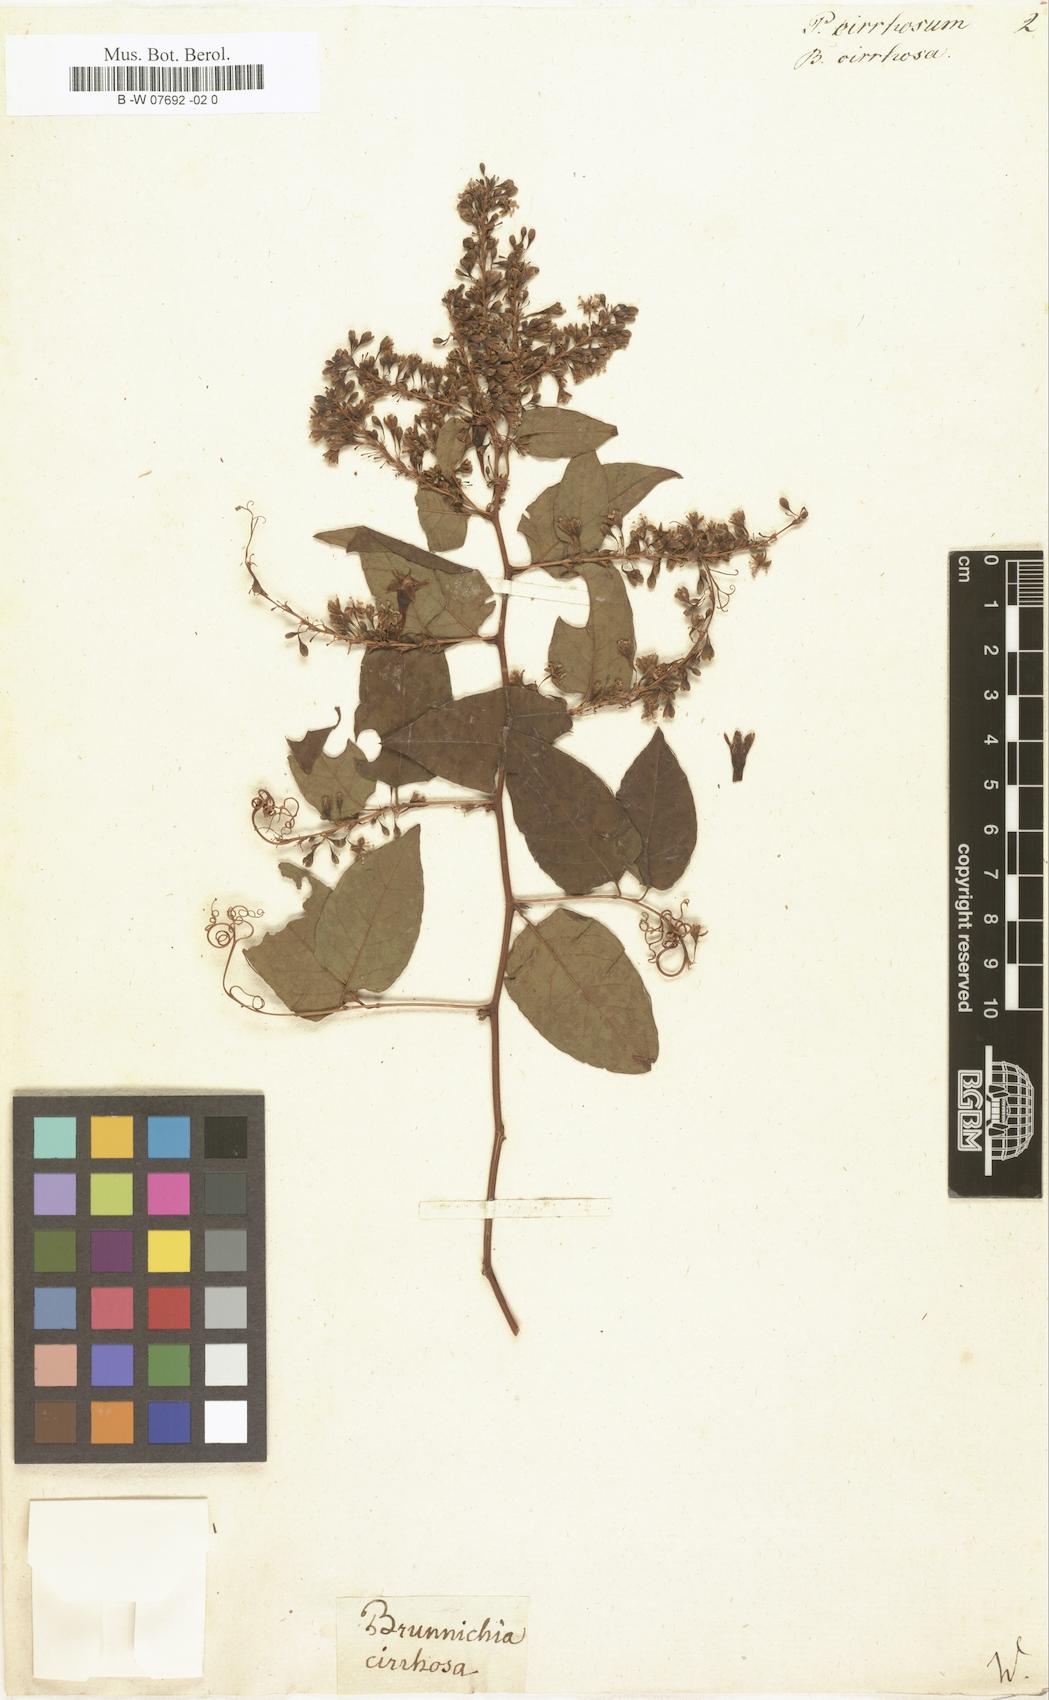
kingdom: Plantae
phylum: Tracheophyta
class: Magnoliopsida
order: Caryophyllales
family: Polygonaceae
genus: Antigonon
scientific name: Antigonon leptopus
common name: Coral vine
